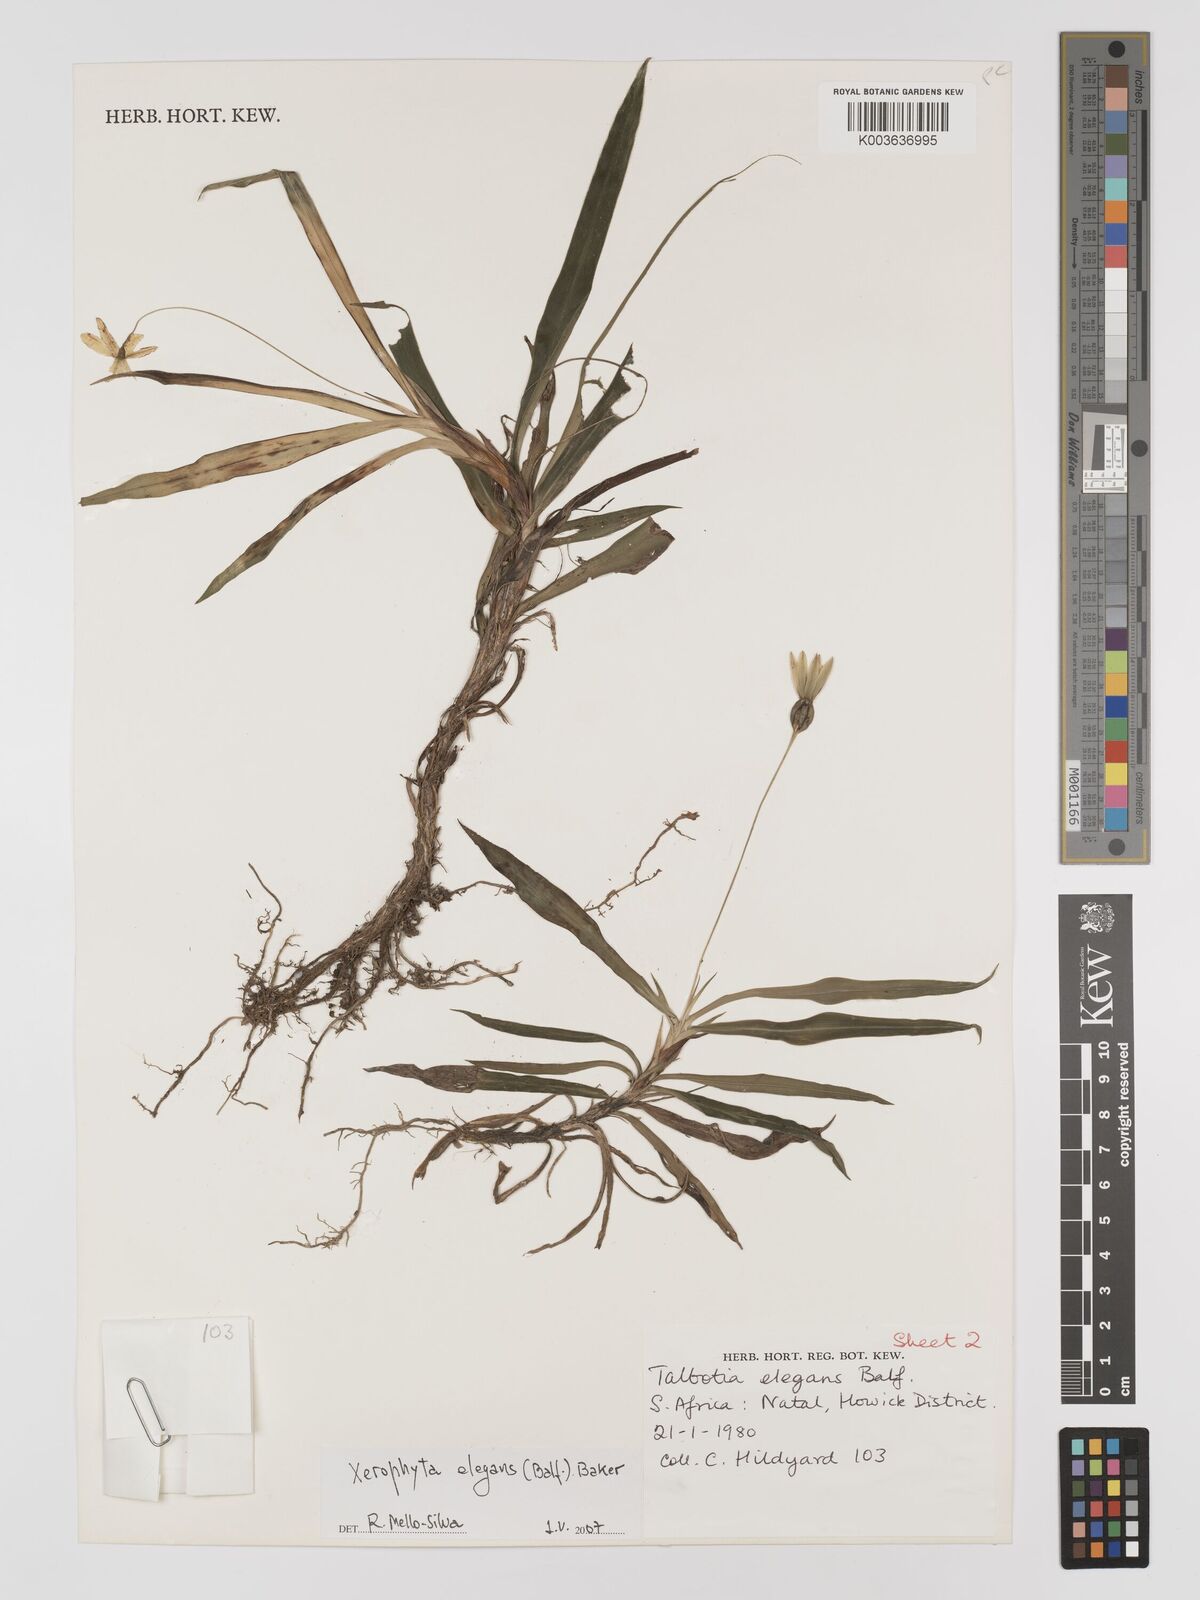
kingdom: Plantae
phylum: Tracheophyta
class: Liliopsida
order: Pandanales
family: Velloziaceae
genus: Xerophyta
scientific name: Xerophyta elegans
